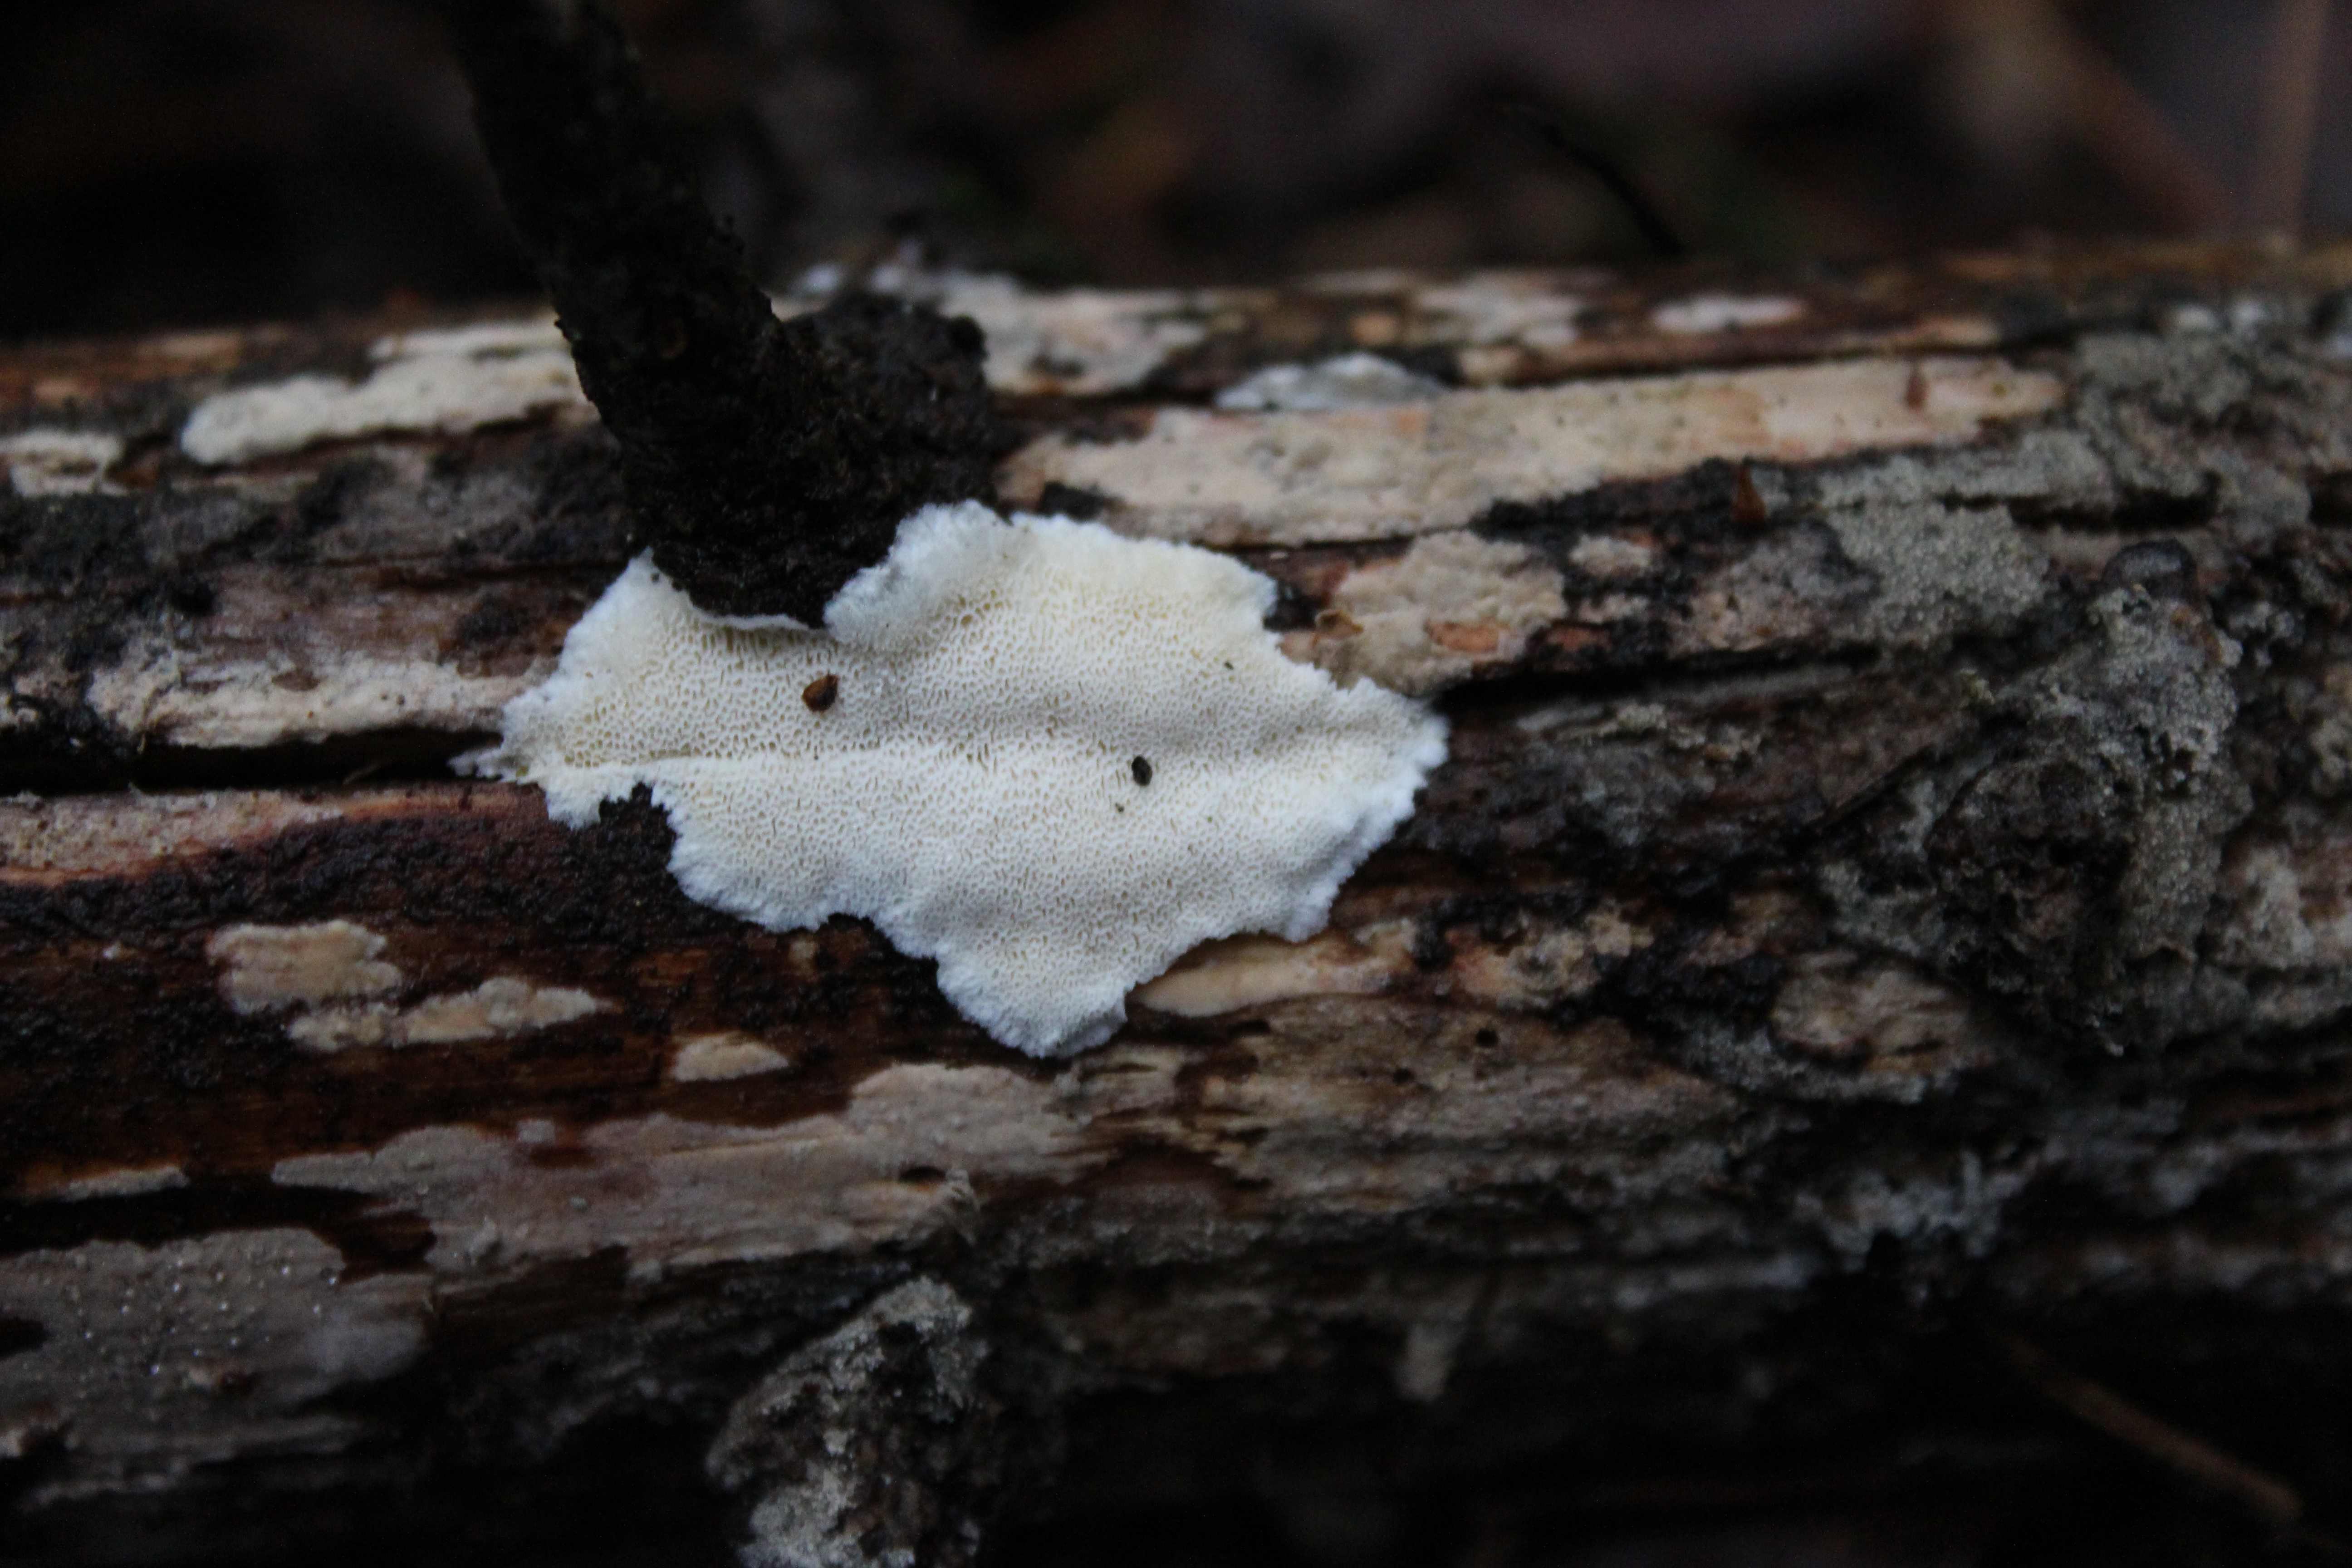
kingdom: Fungi
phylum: Basidiomycota
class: Agaricomycetes
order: Polyporales
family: Dacryobolaceae
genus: Postia
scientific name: Postia sericeomollis
